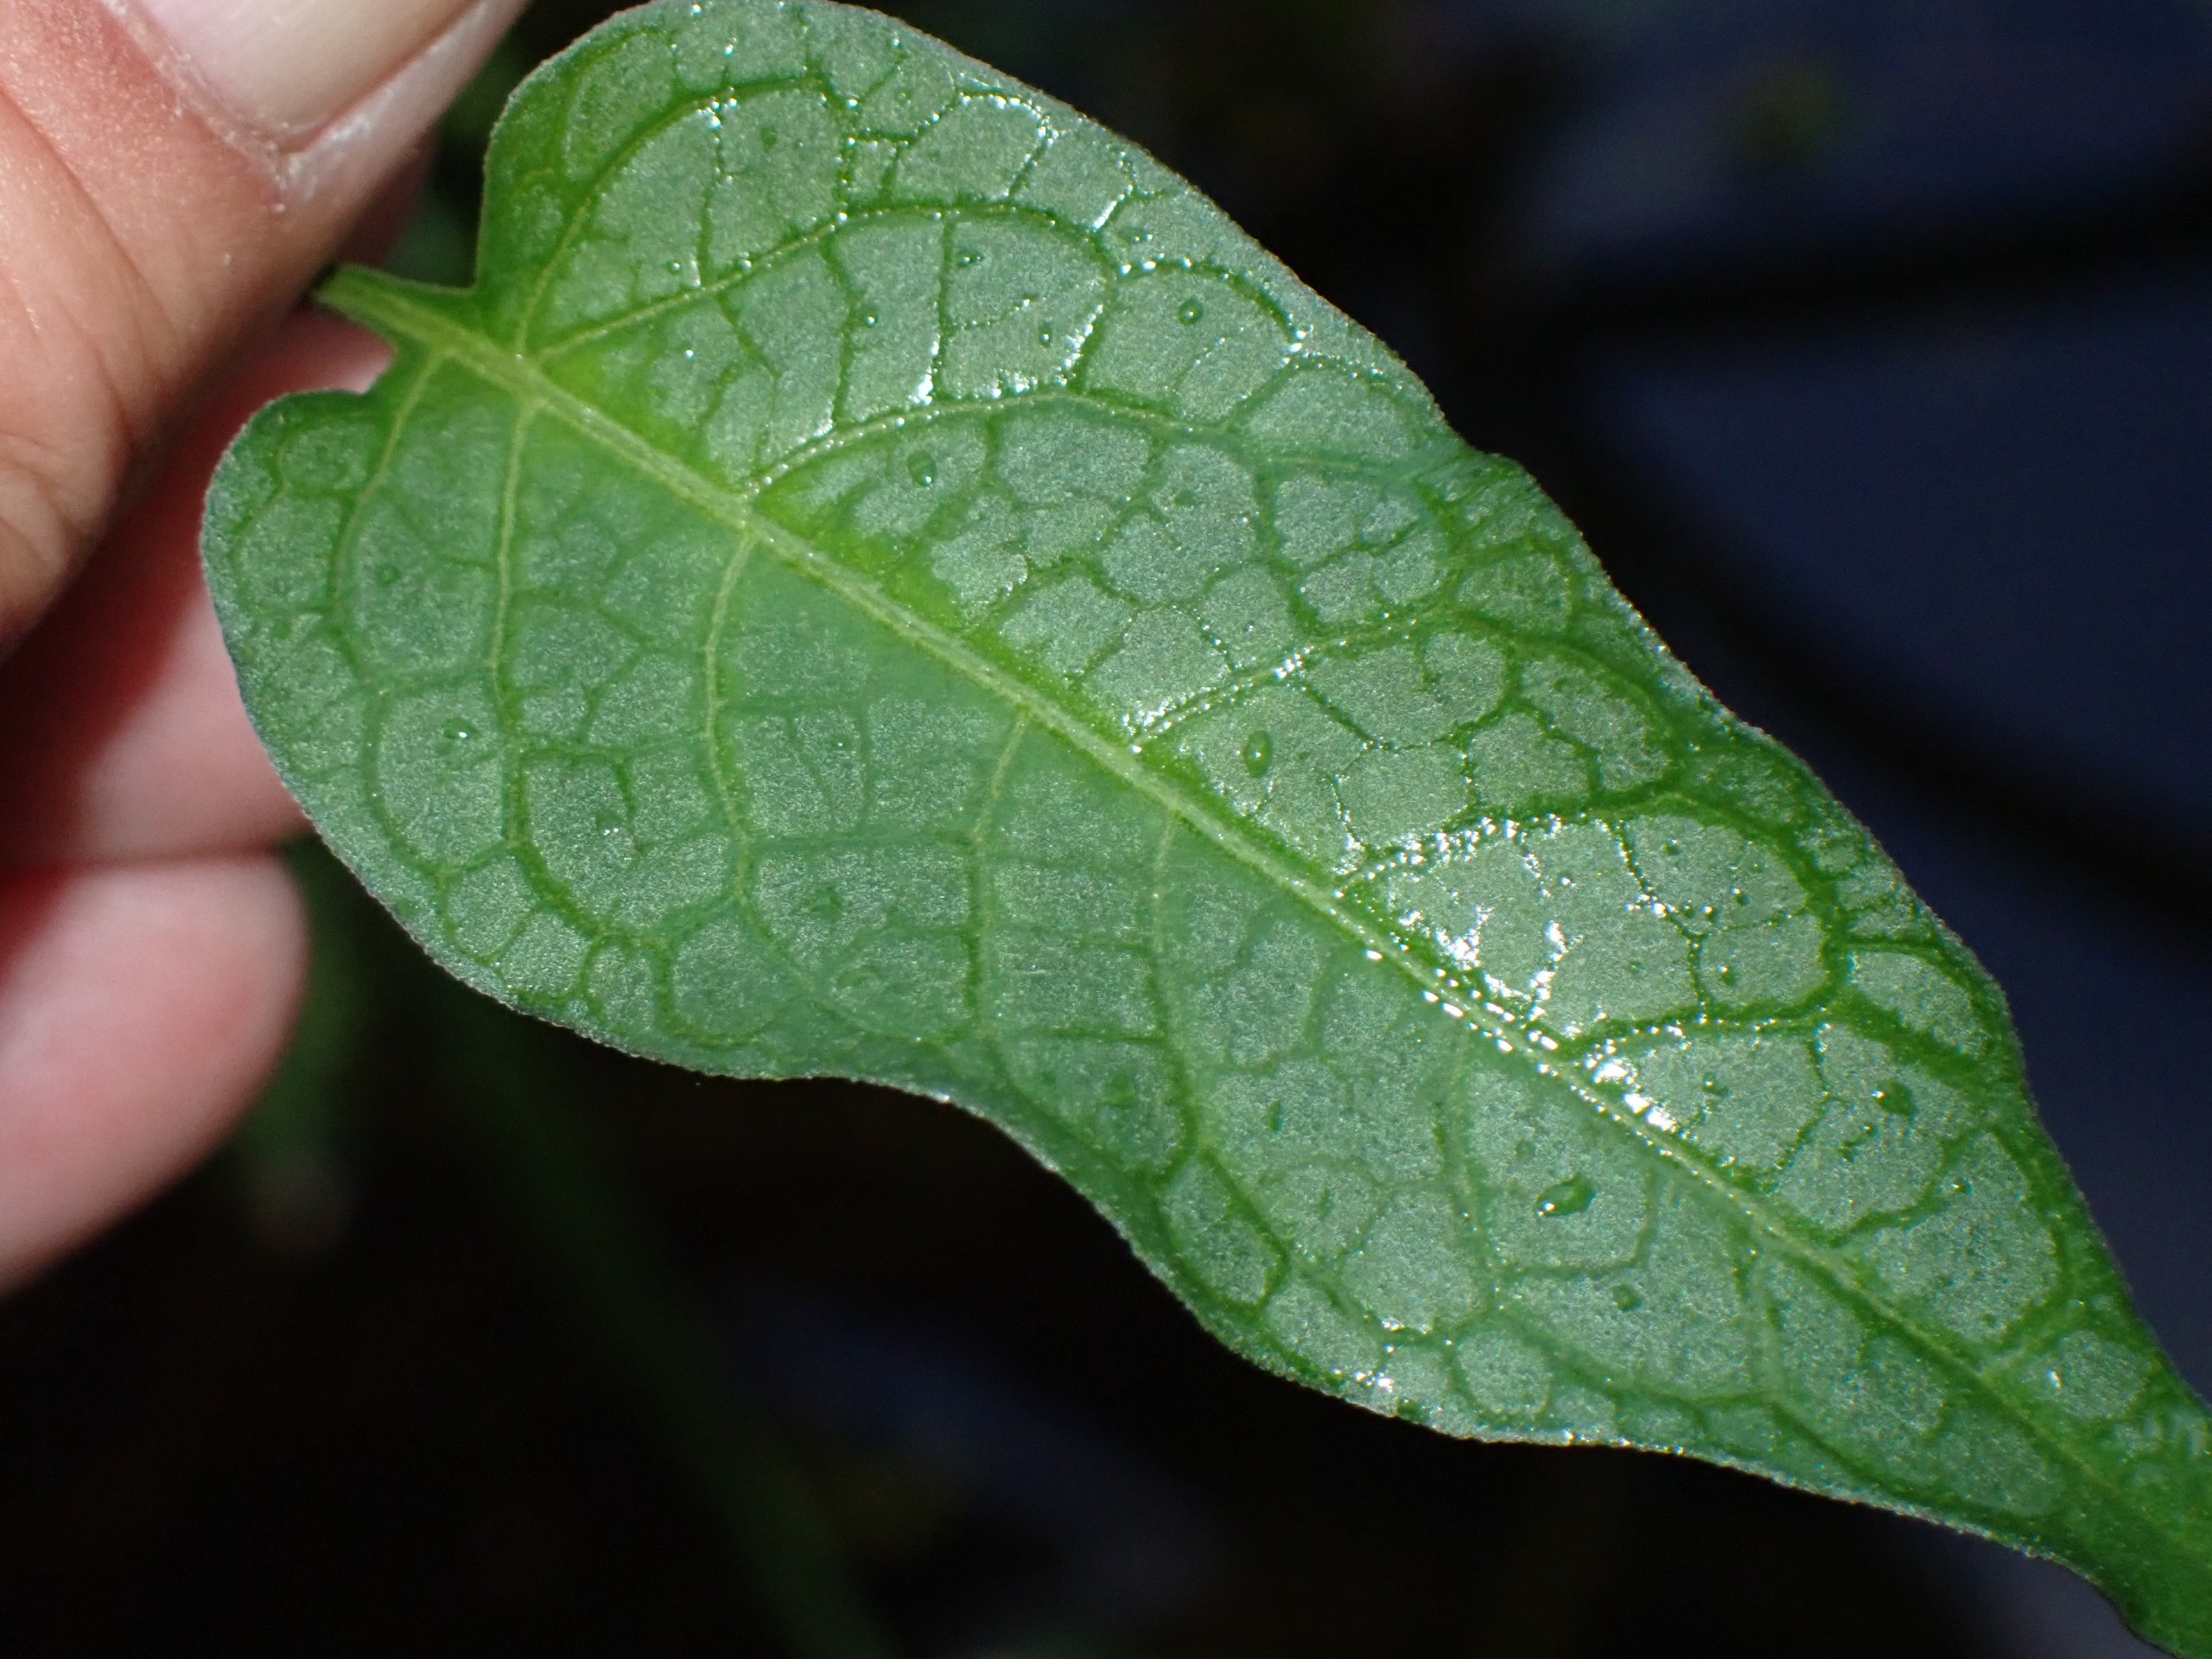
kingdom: Plantae
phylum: Tracheophyta
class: Magnoliopsida
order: Solanales
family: Solanaceae
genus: Solanum
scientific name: Solanum dulcamara
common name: Bittersød natskygge
